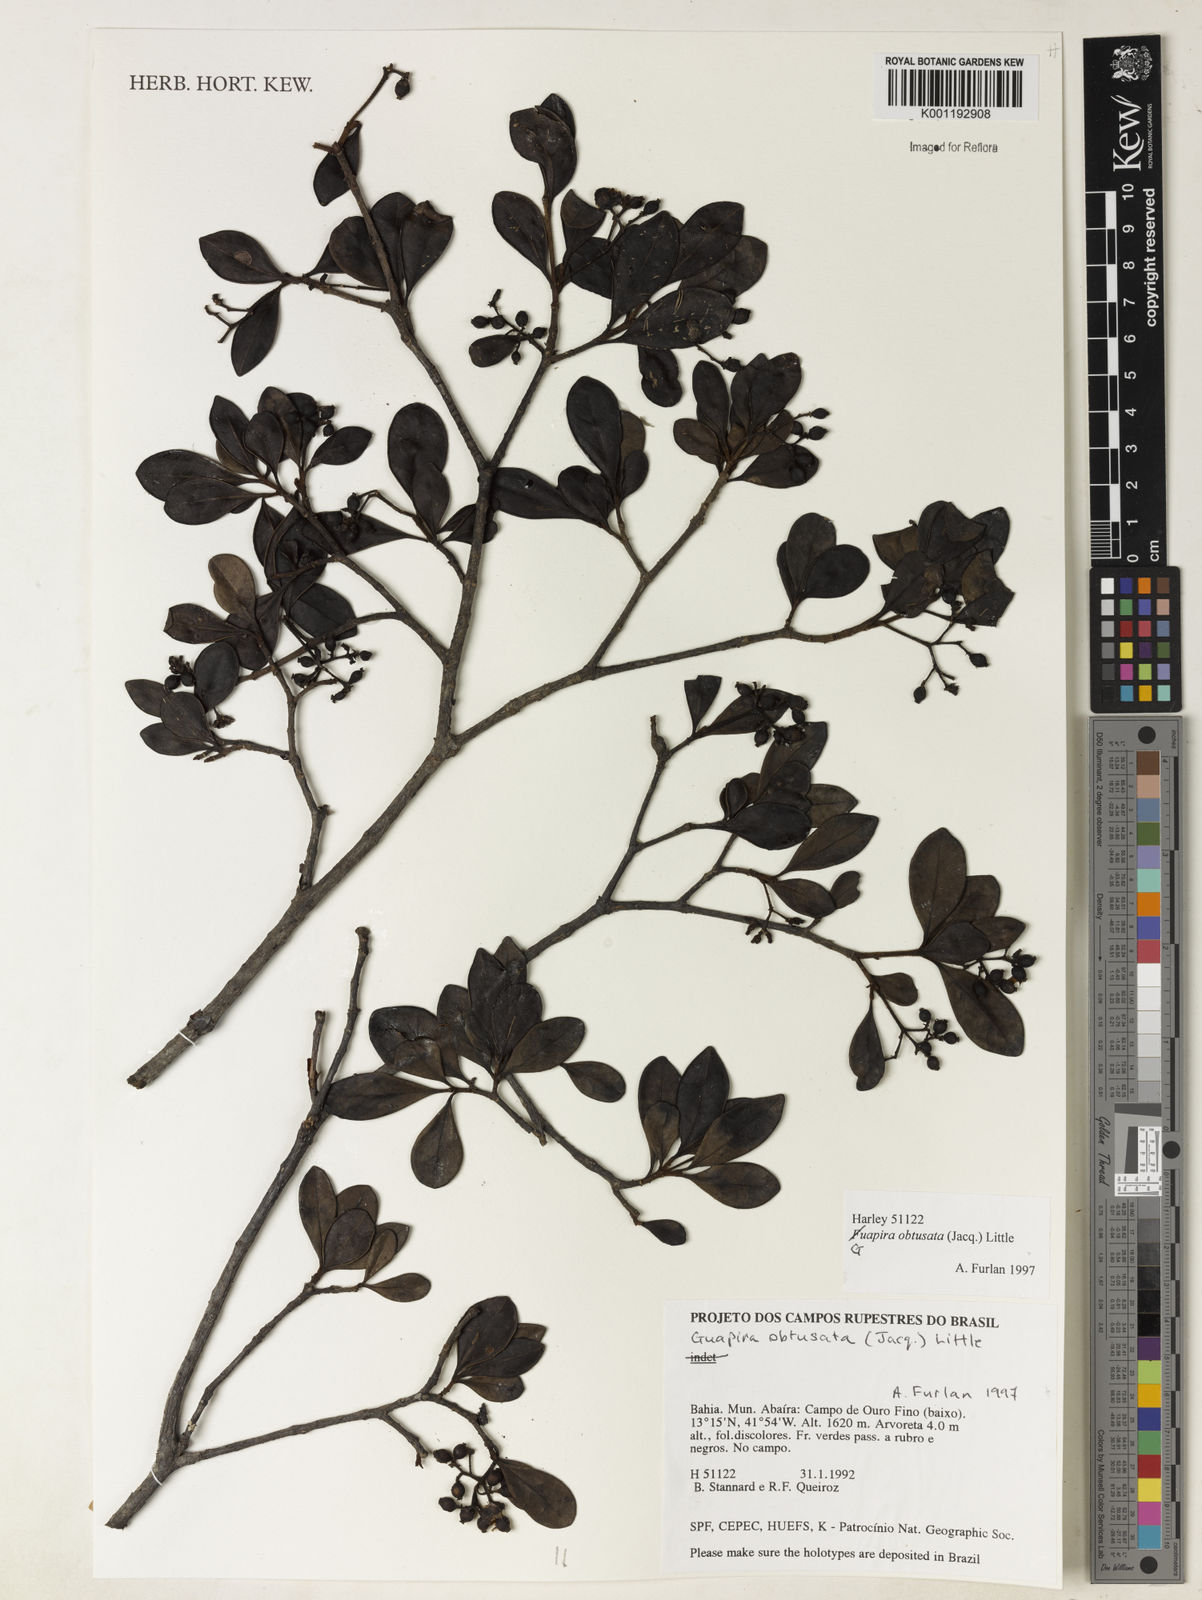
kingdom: Plantae
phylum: Tracheophyta
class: Magnoliopsida
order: Caryophyllales
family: Nyctaginaceae
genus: Guapira
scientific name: Guapira obtusata
